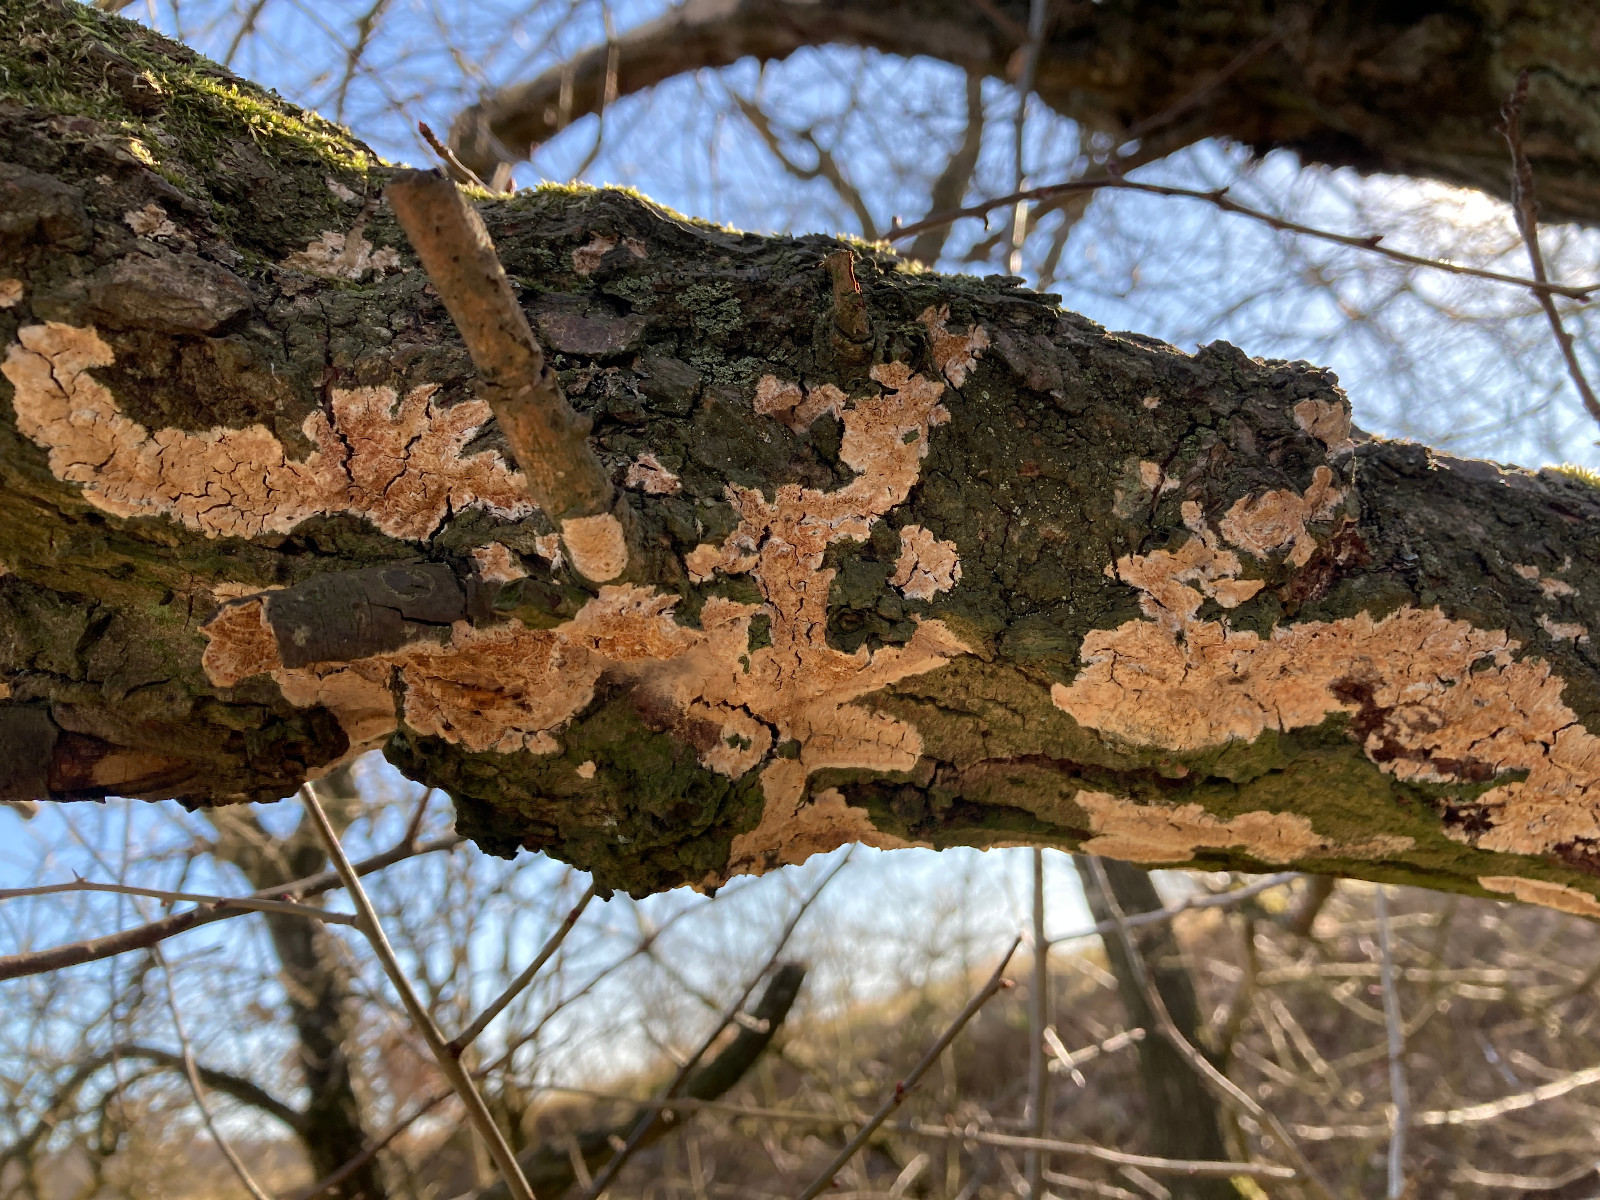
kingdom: Fungi
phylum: Basidiomycota
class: Agaricomycetes
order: Russulales
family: Peniophoraceae
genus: Peniophora
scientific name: Peniophora incarnata
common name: laksefarvet voksskind
